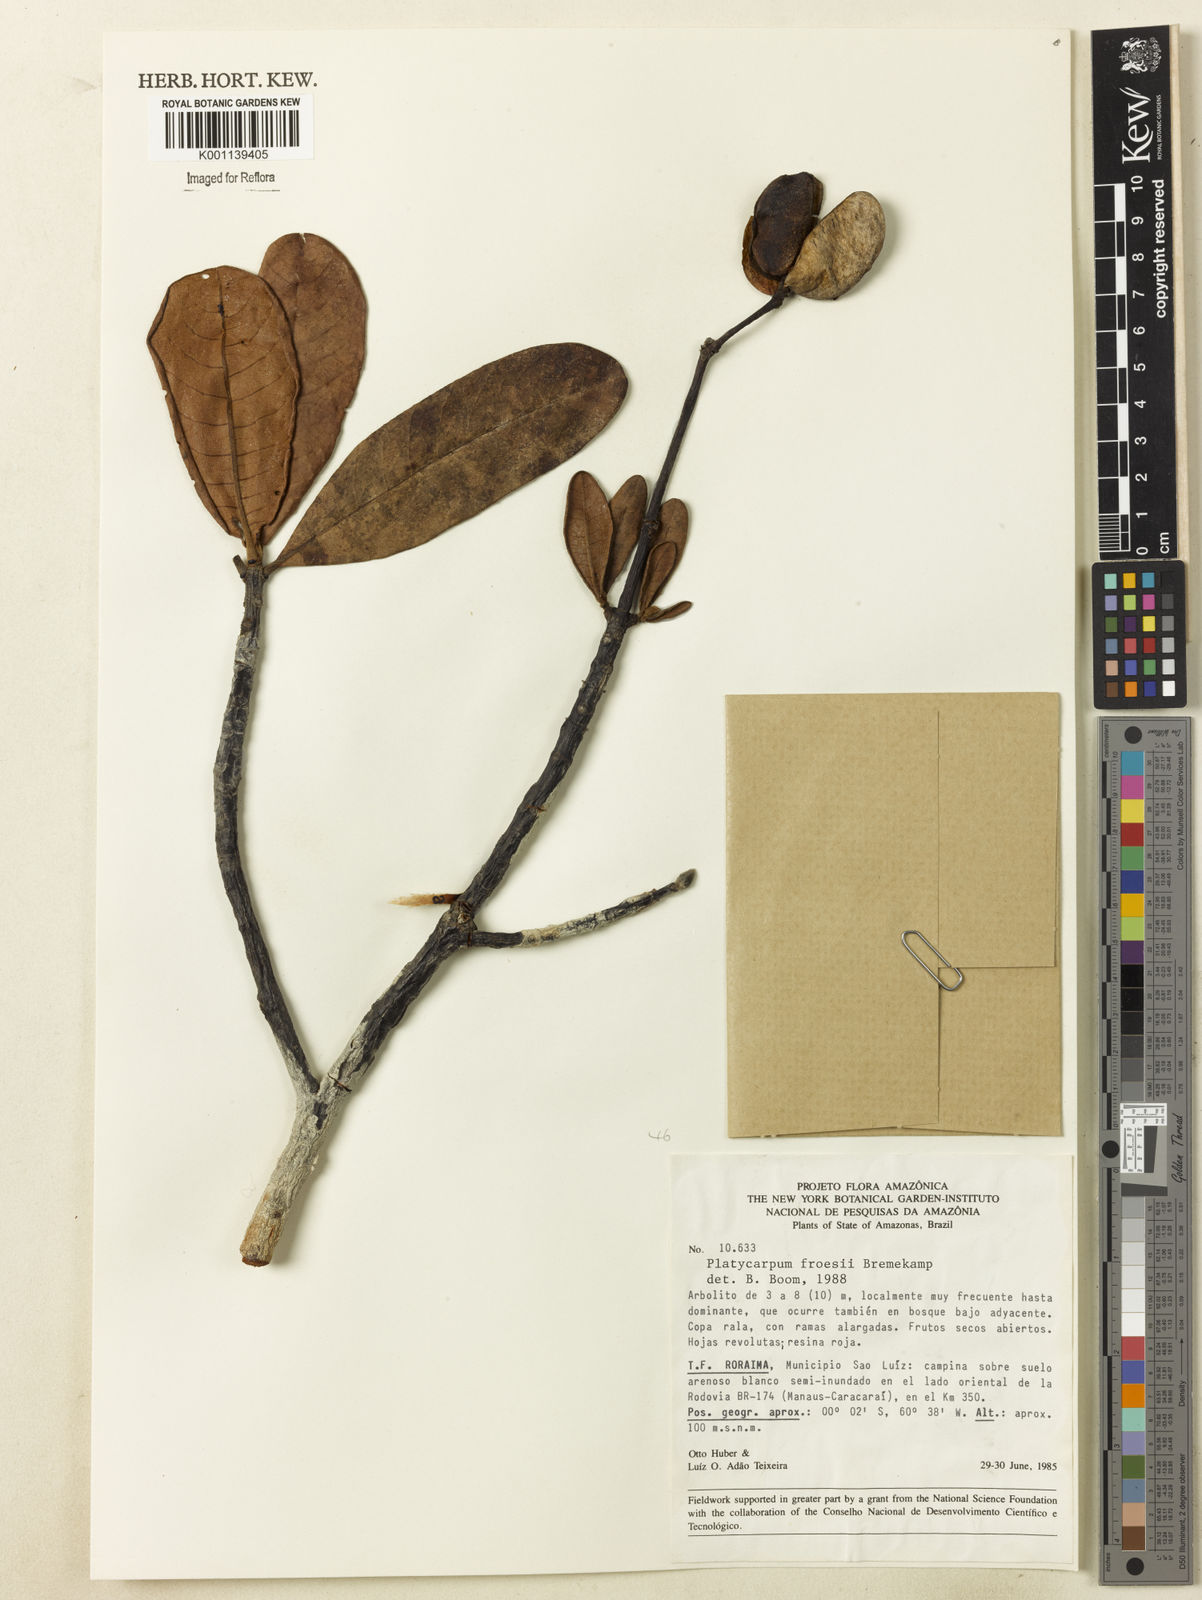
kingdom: Plantae
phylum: Tracheophyta
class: Magnoliopsida
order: Gentianales
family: Rubiaceae
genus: Platycarpum
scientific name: Platycarpum froesii
